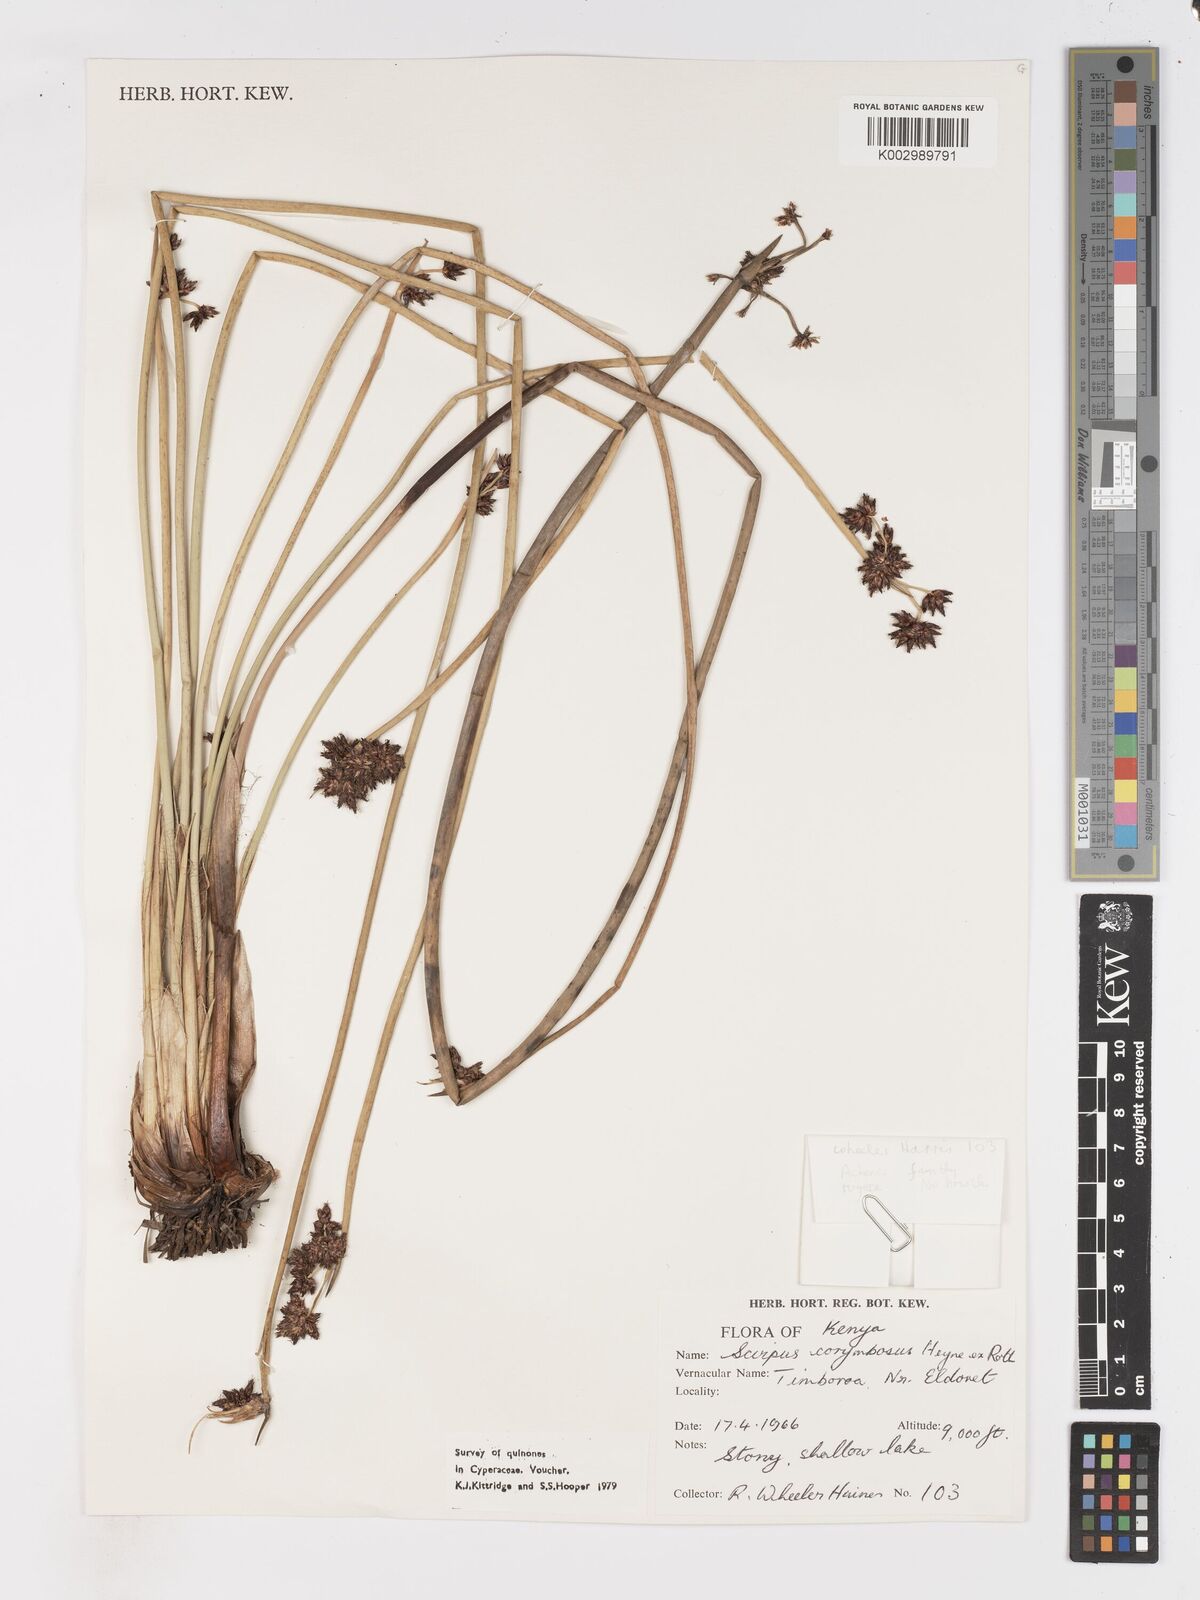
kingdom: Plantae
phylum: Tracheophyta
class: Liliopsida
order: Poales
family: Cyperaceae
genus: Schoenoplectiella
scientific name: Schoenoplectiella brachyceras
